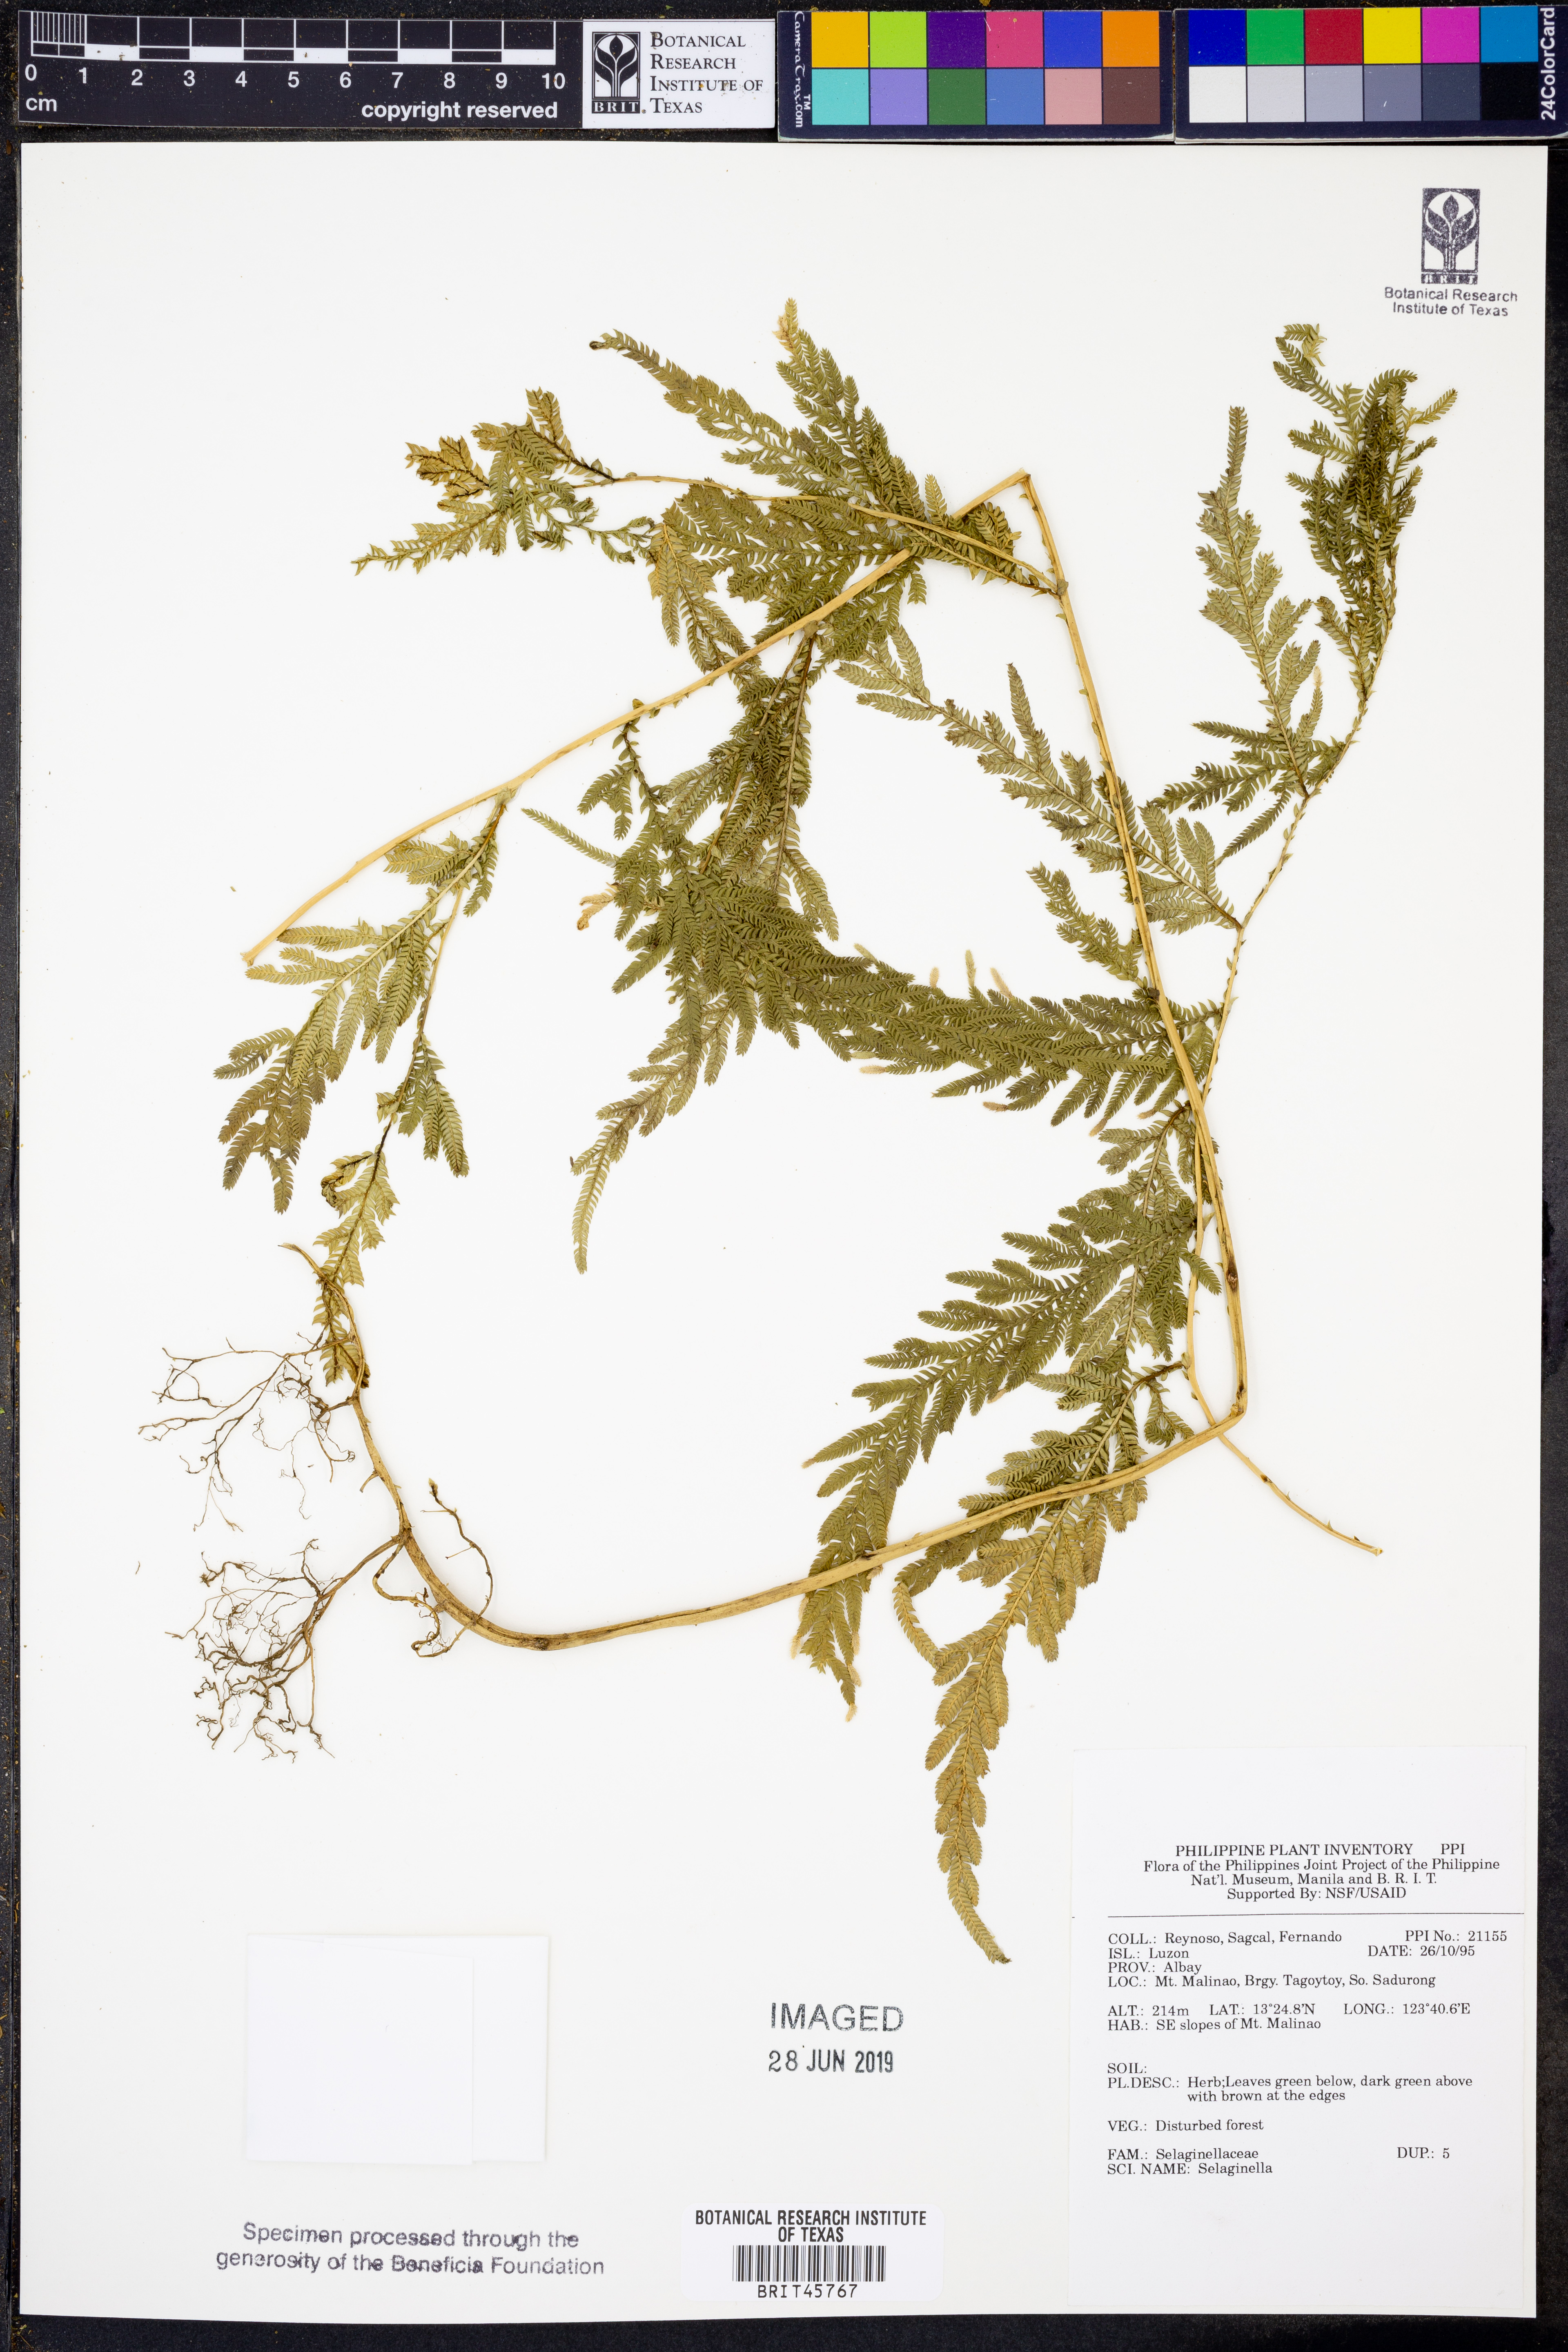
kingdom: Plantae
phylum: Tracheophyta
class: Lycopodiopsida
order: Selaginellales
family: Selaginellaceae
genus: Selaginella
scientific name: Selaginella
